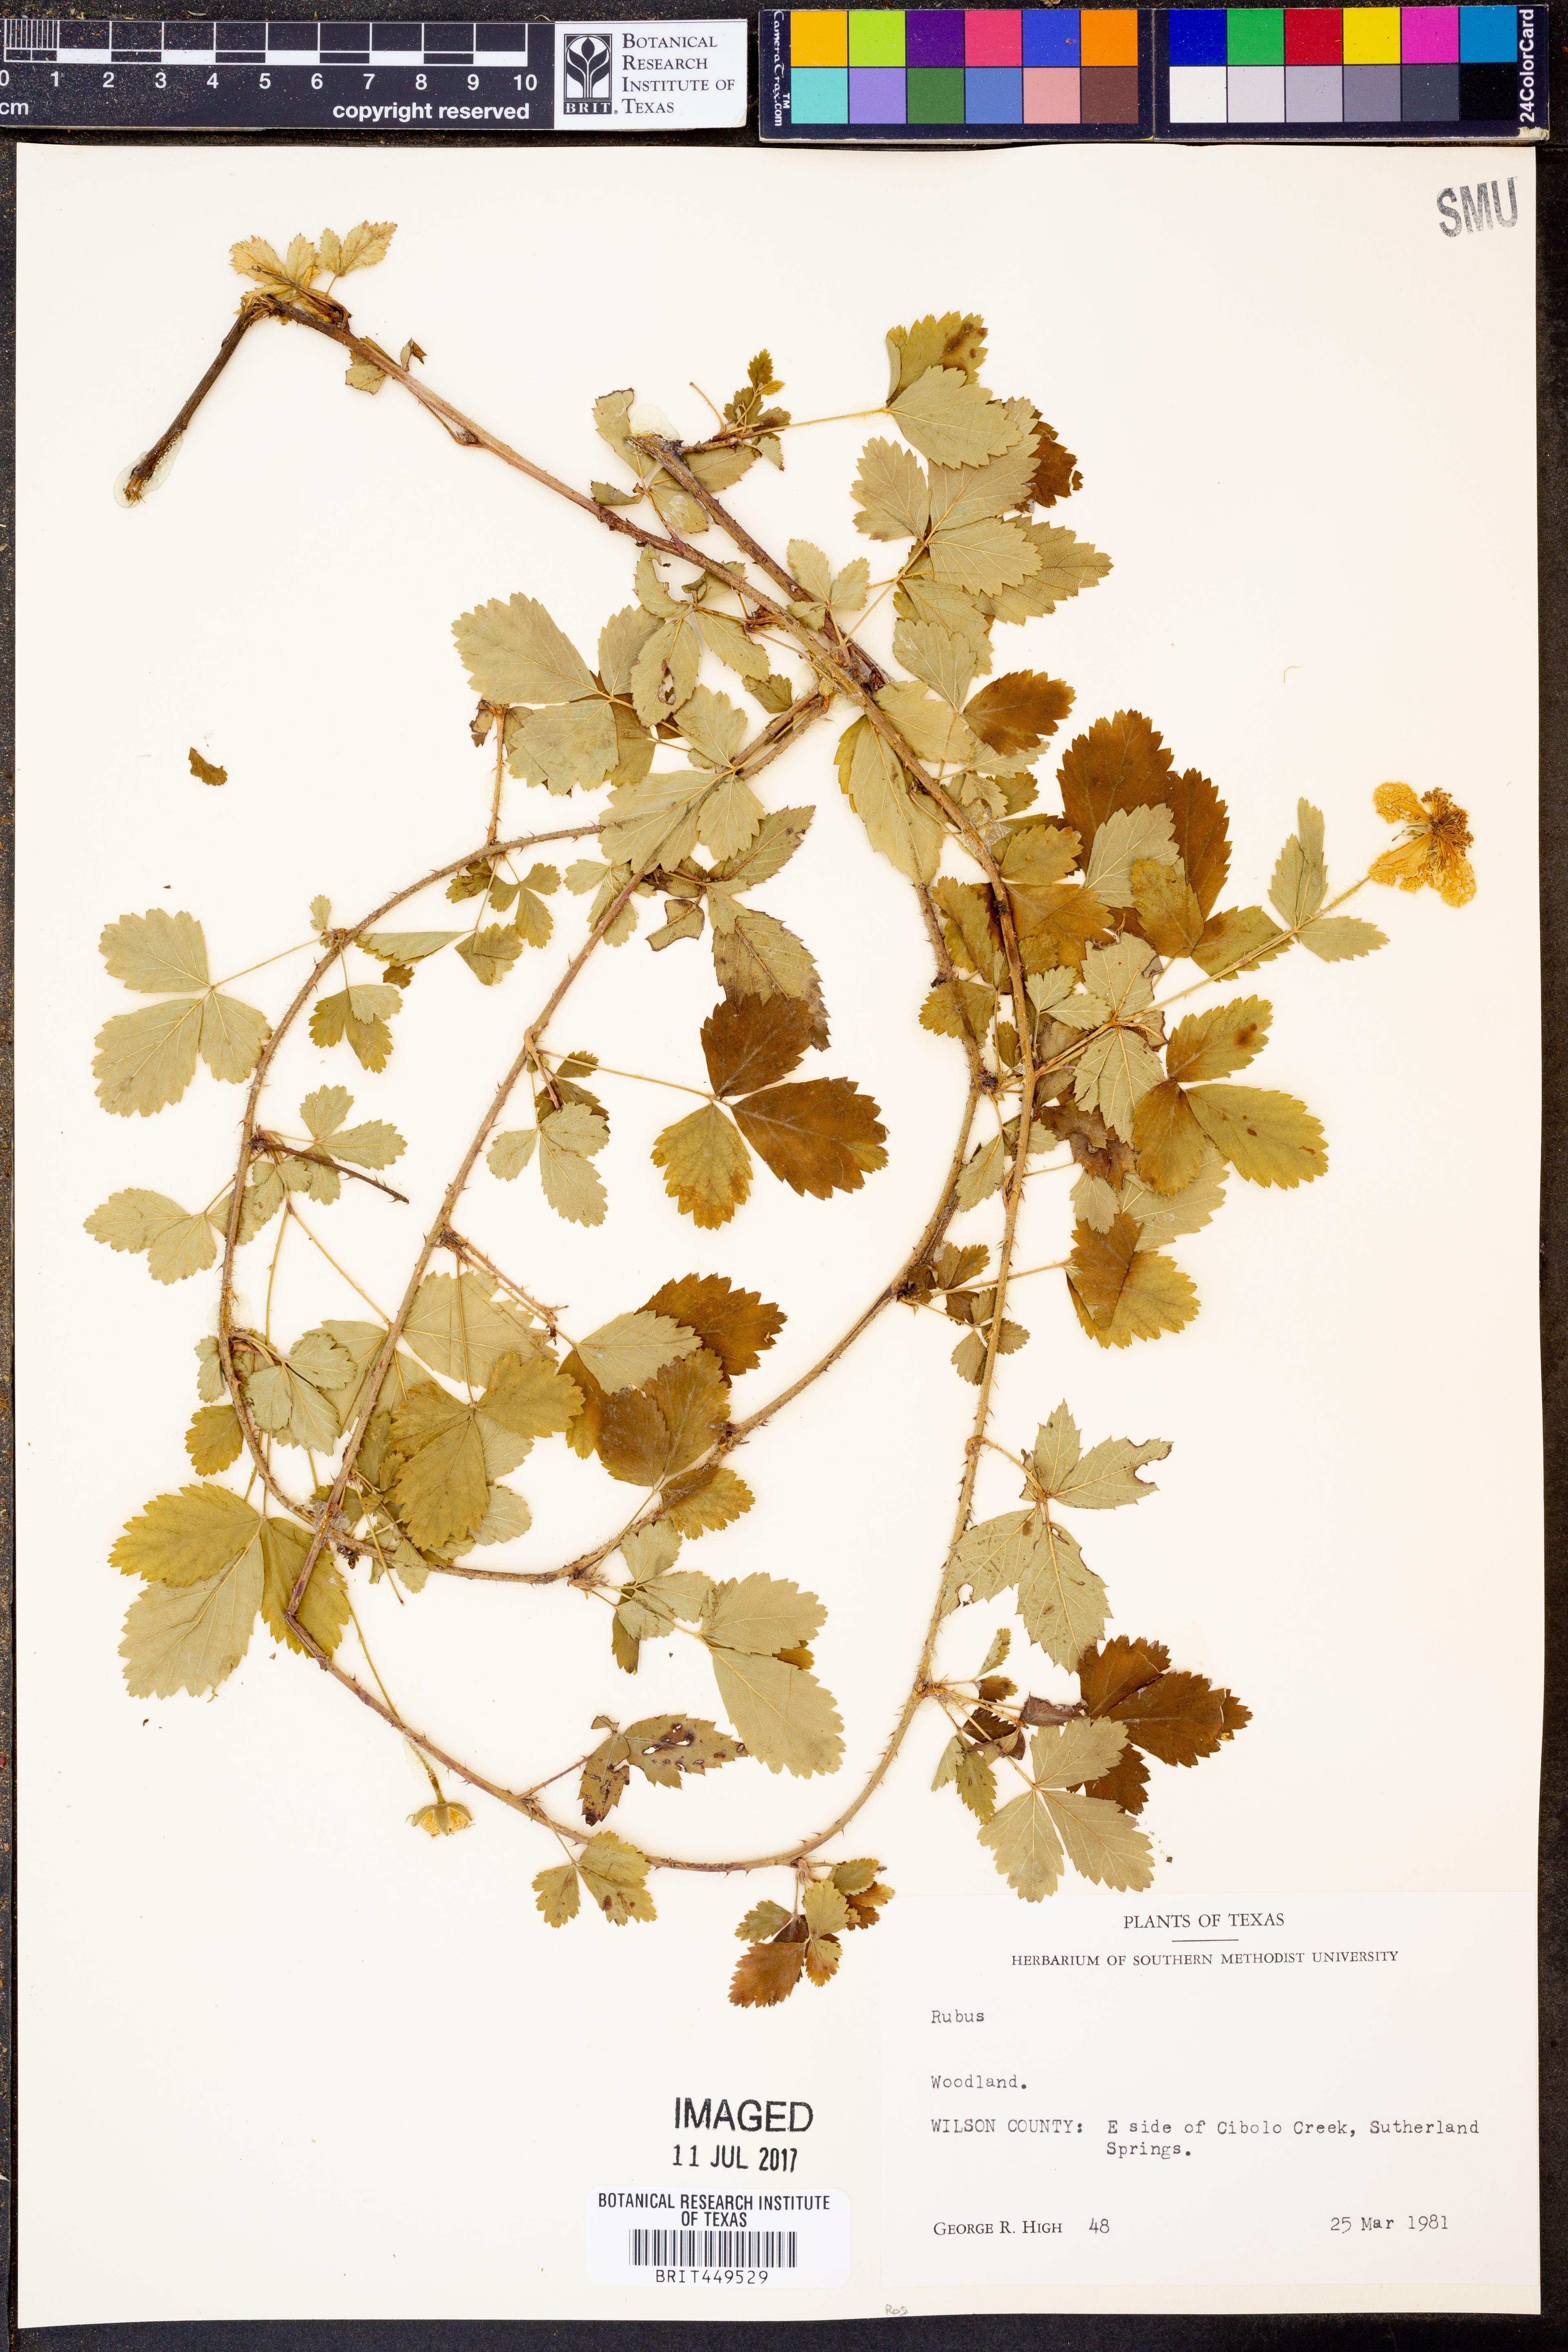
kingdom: Plantae
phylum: Tracheophyta
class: Magnoliopsida
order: Rosales
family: Rosaceae
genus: Rubus
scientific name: Rubus
